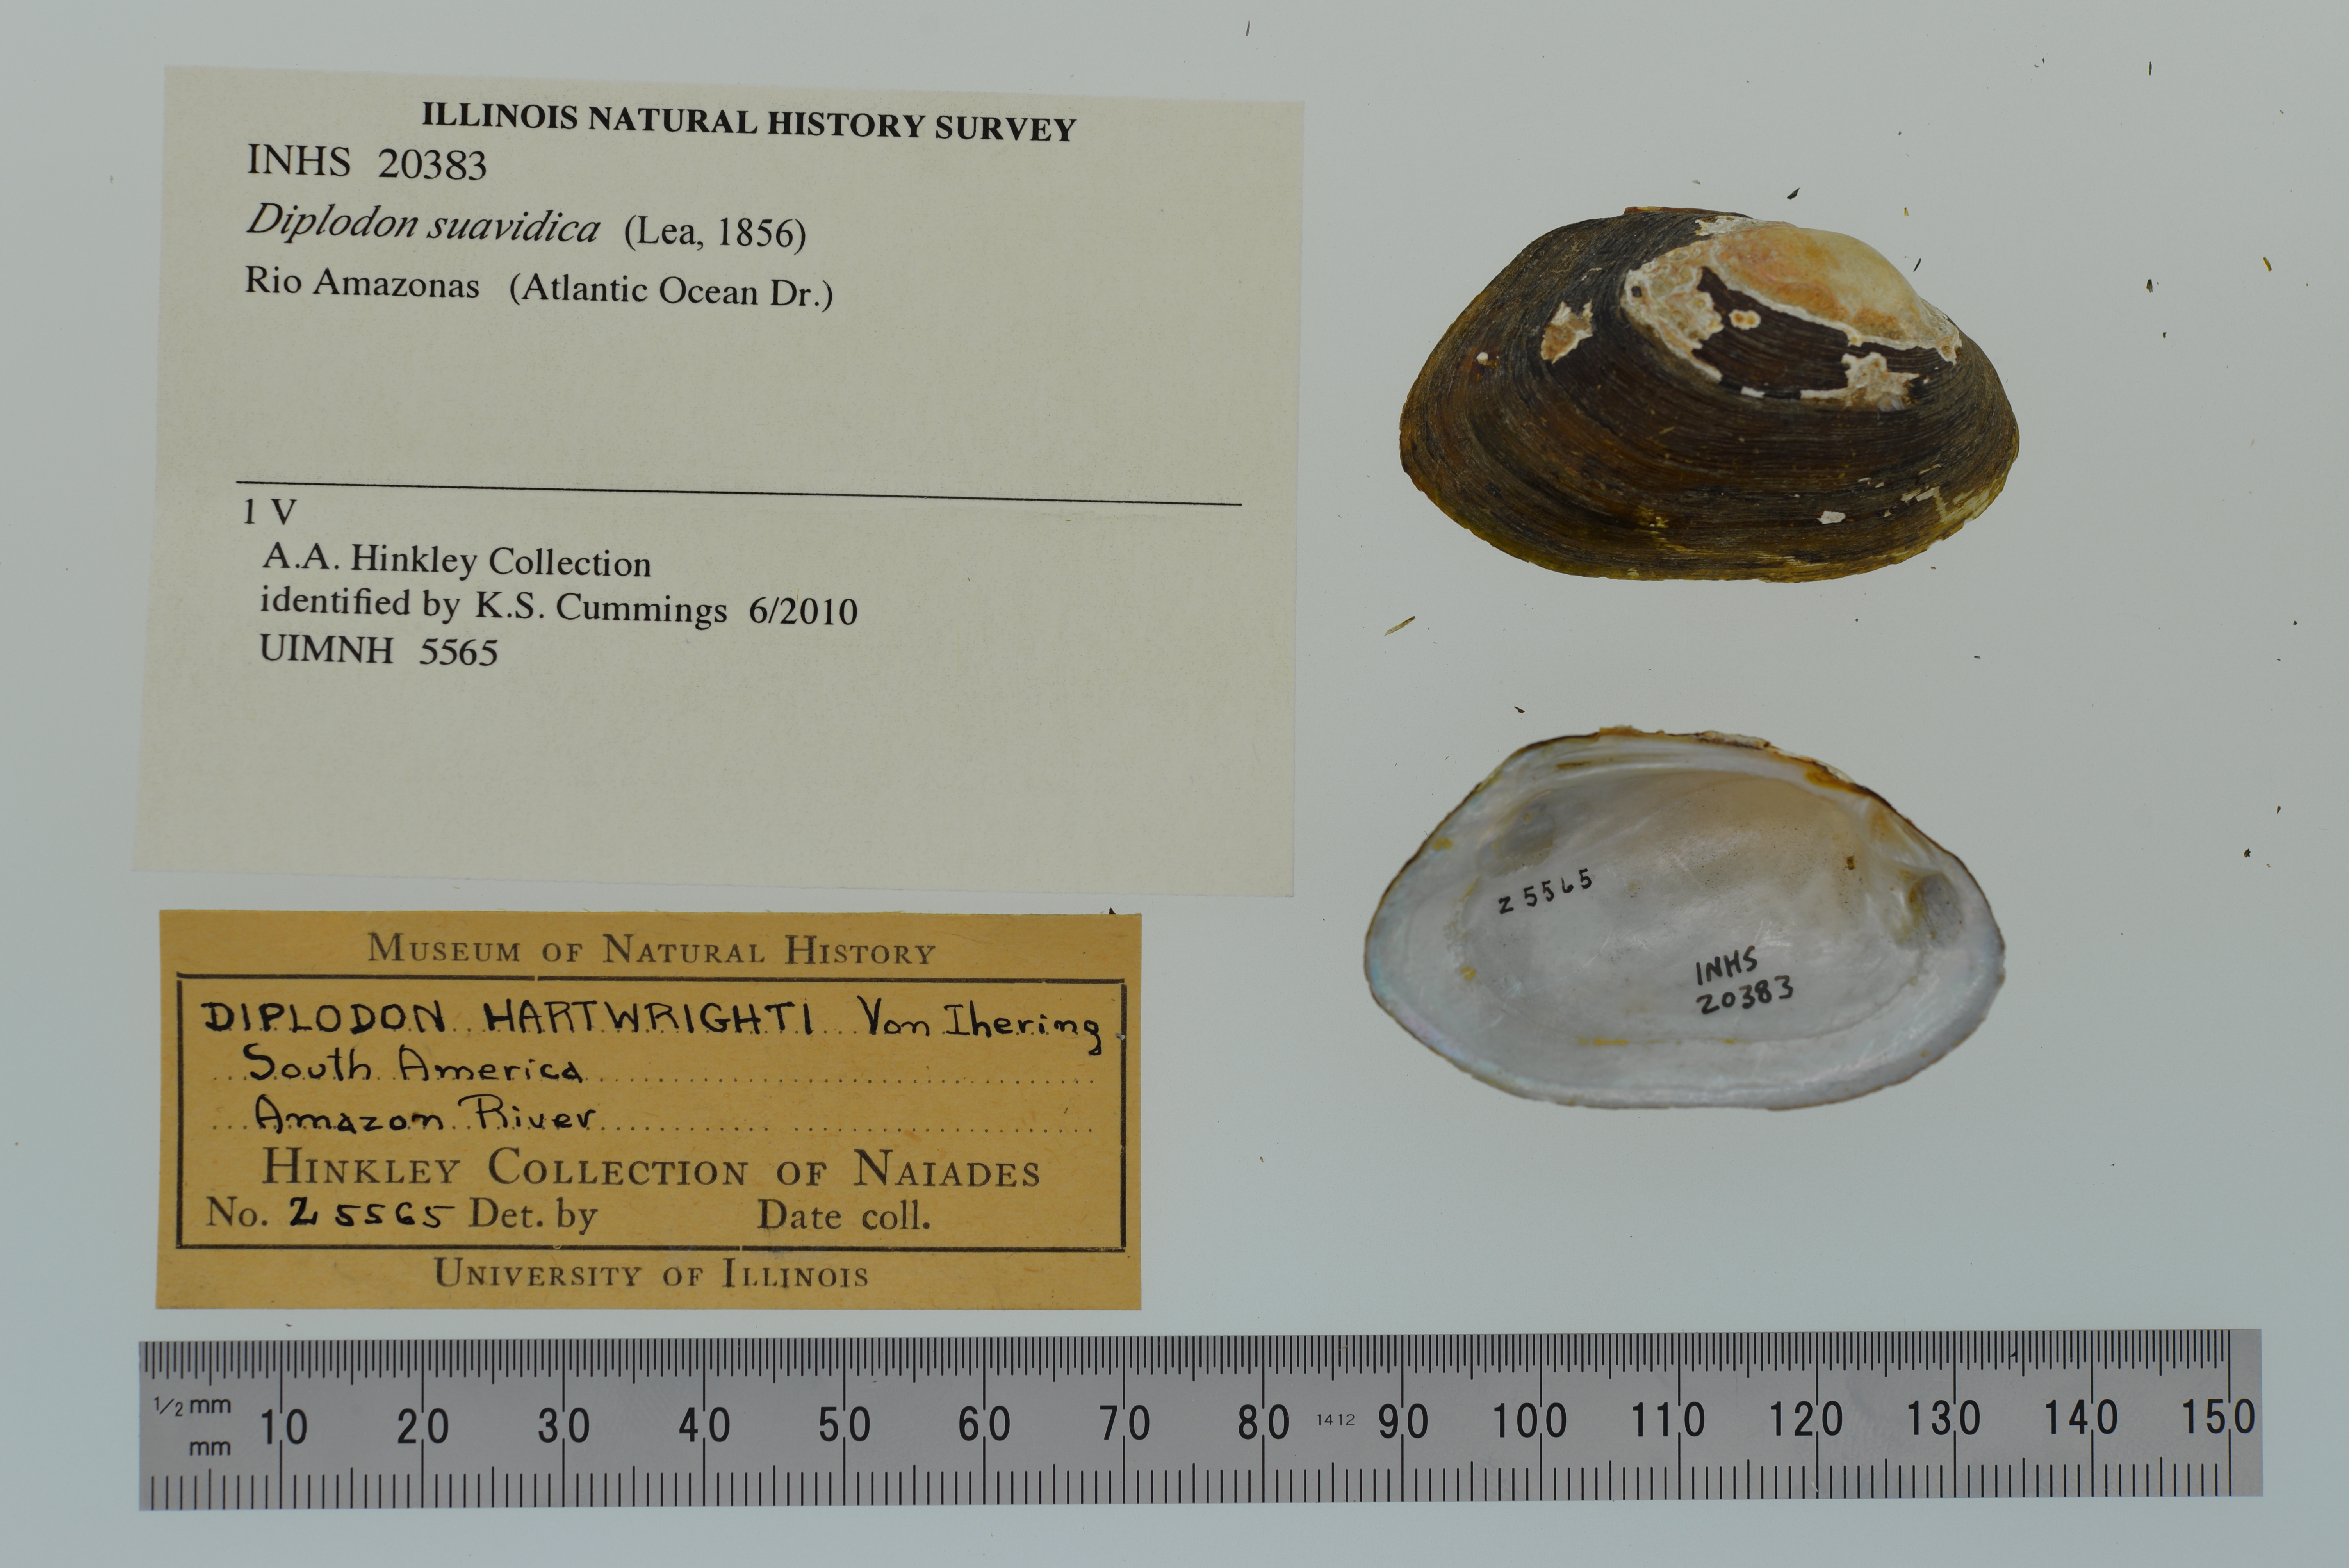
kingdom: Animalia
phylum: Mollusca
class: Bivalvia
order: Unionida
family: Hyriidae
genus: Diplodon
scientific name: Diplodon suavidicus
